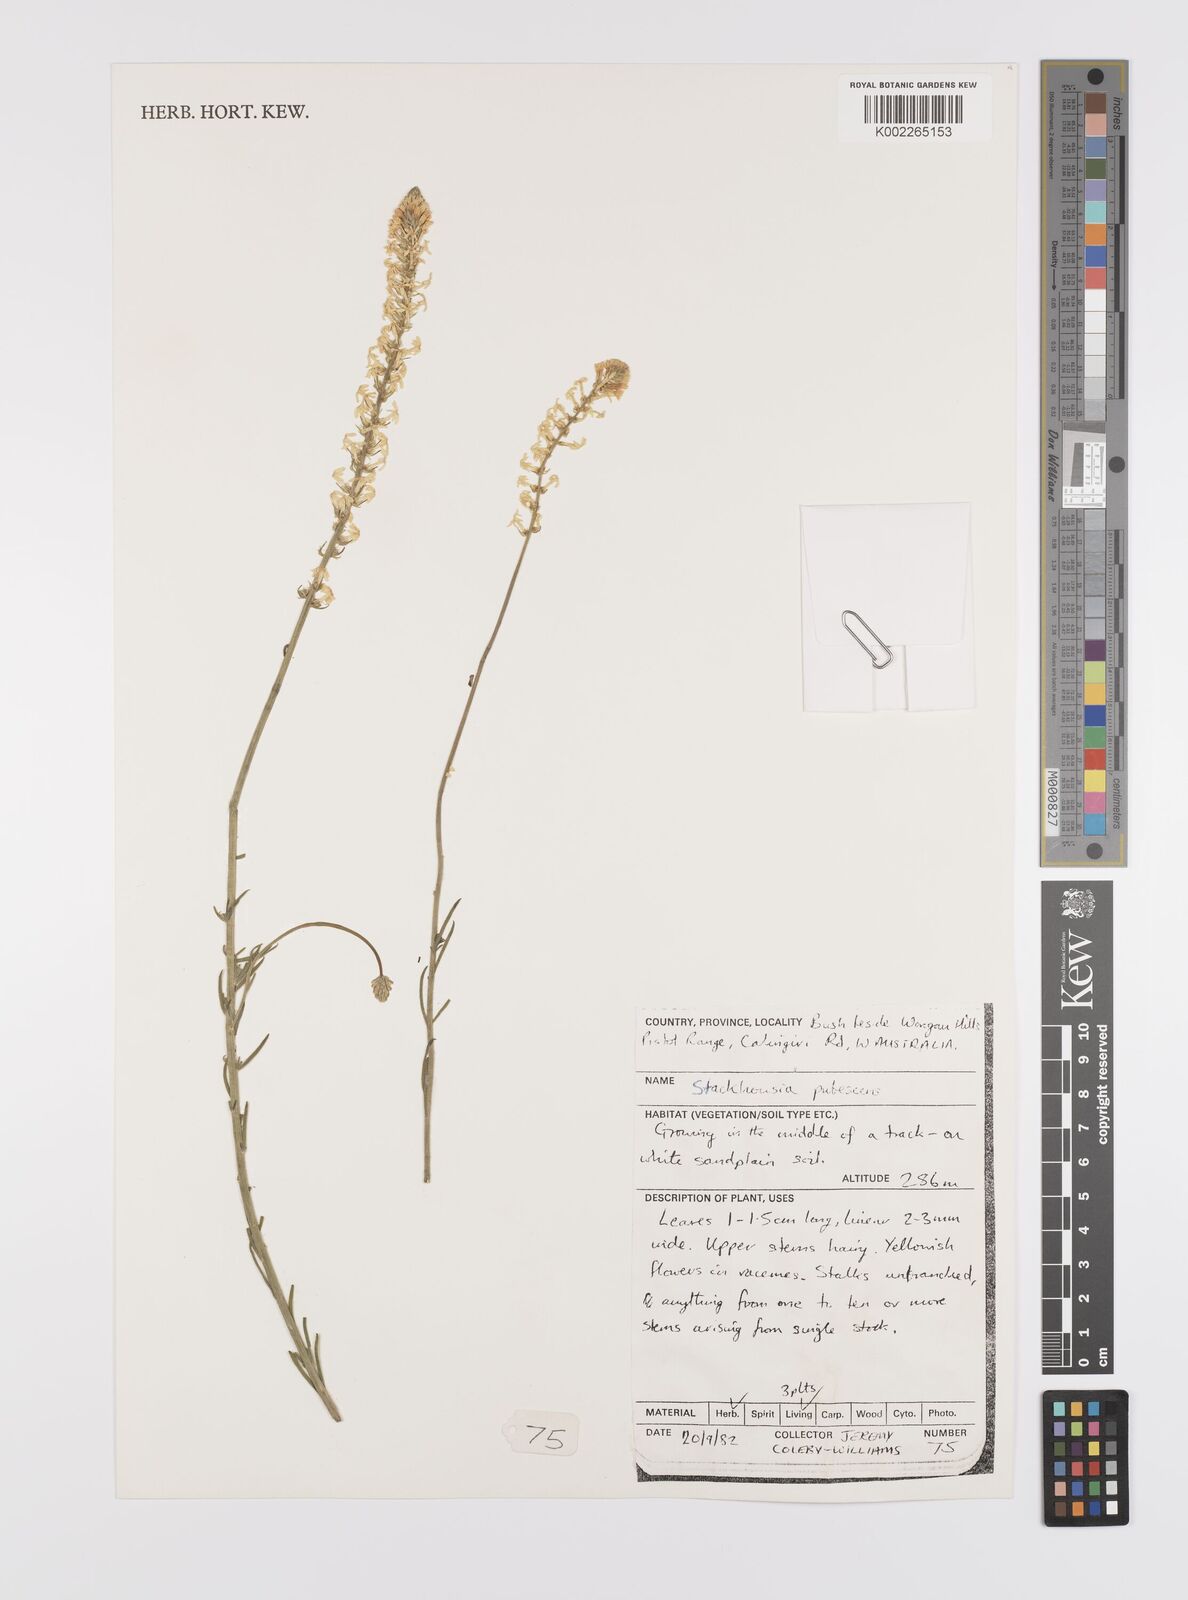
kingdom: Plantae
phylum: Tracheophyta
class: Magnoliopsida
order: Celastrales
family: Celastraceae
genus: Stackhousia
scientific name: Stackhousia monogyna
